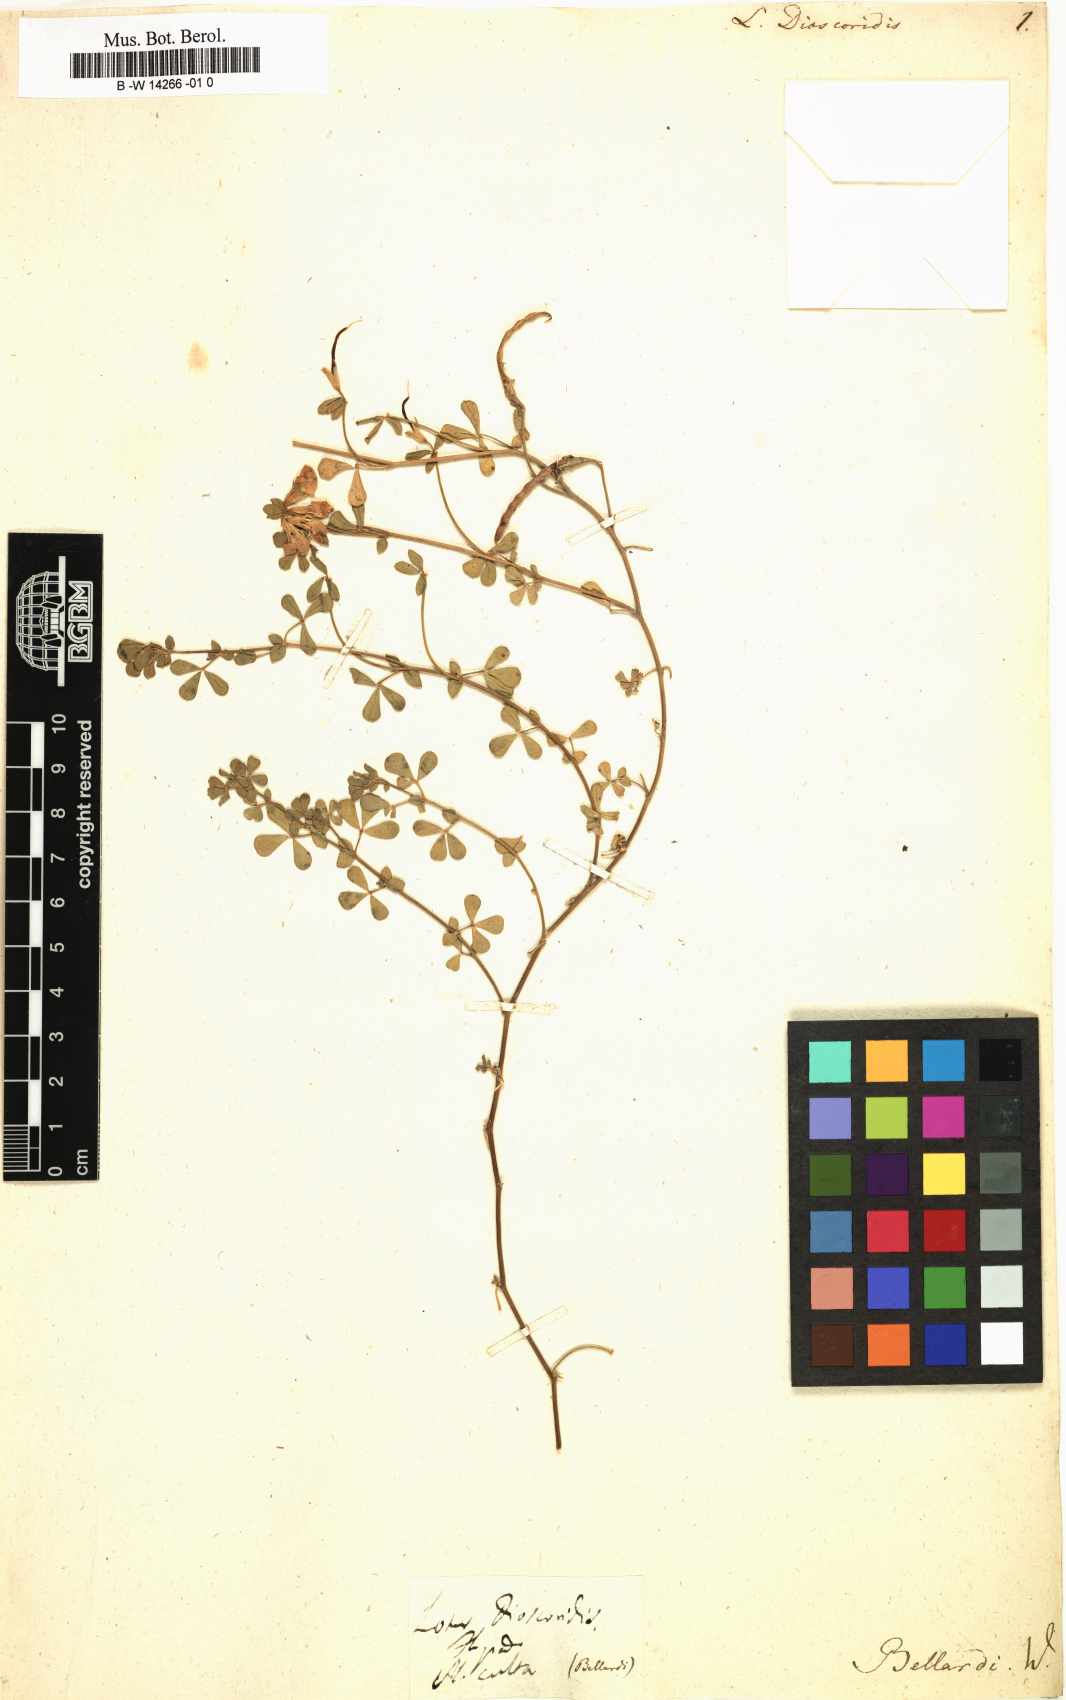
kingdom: Plantae
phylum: Tracheophyta
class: Magnoliopsida
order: Fabales
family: Fabaceae
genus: Lotus
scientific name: Lotus peregrinus
